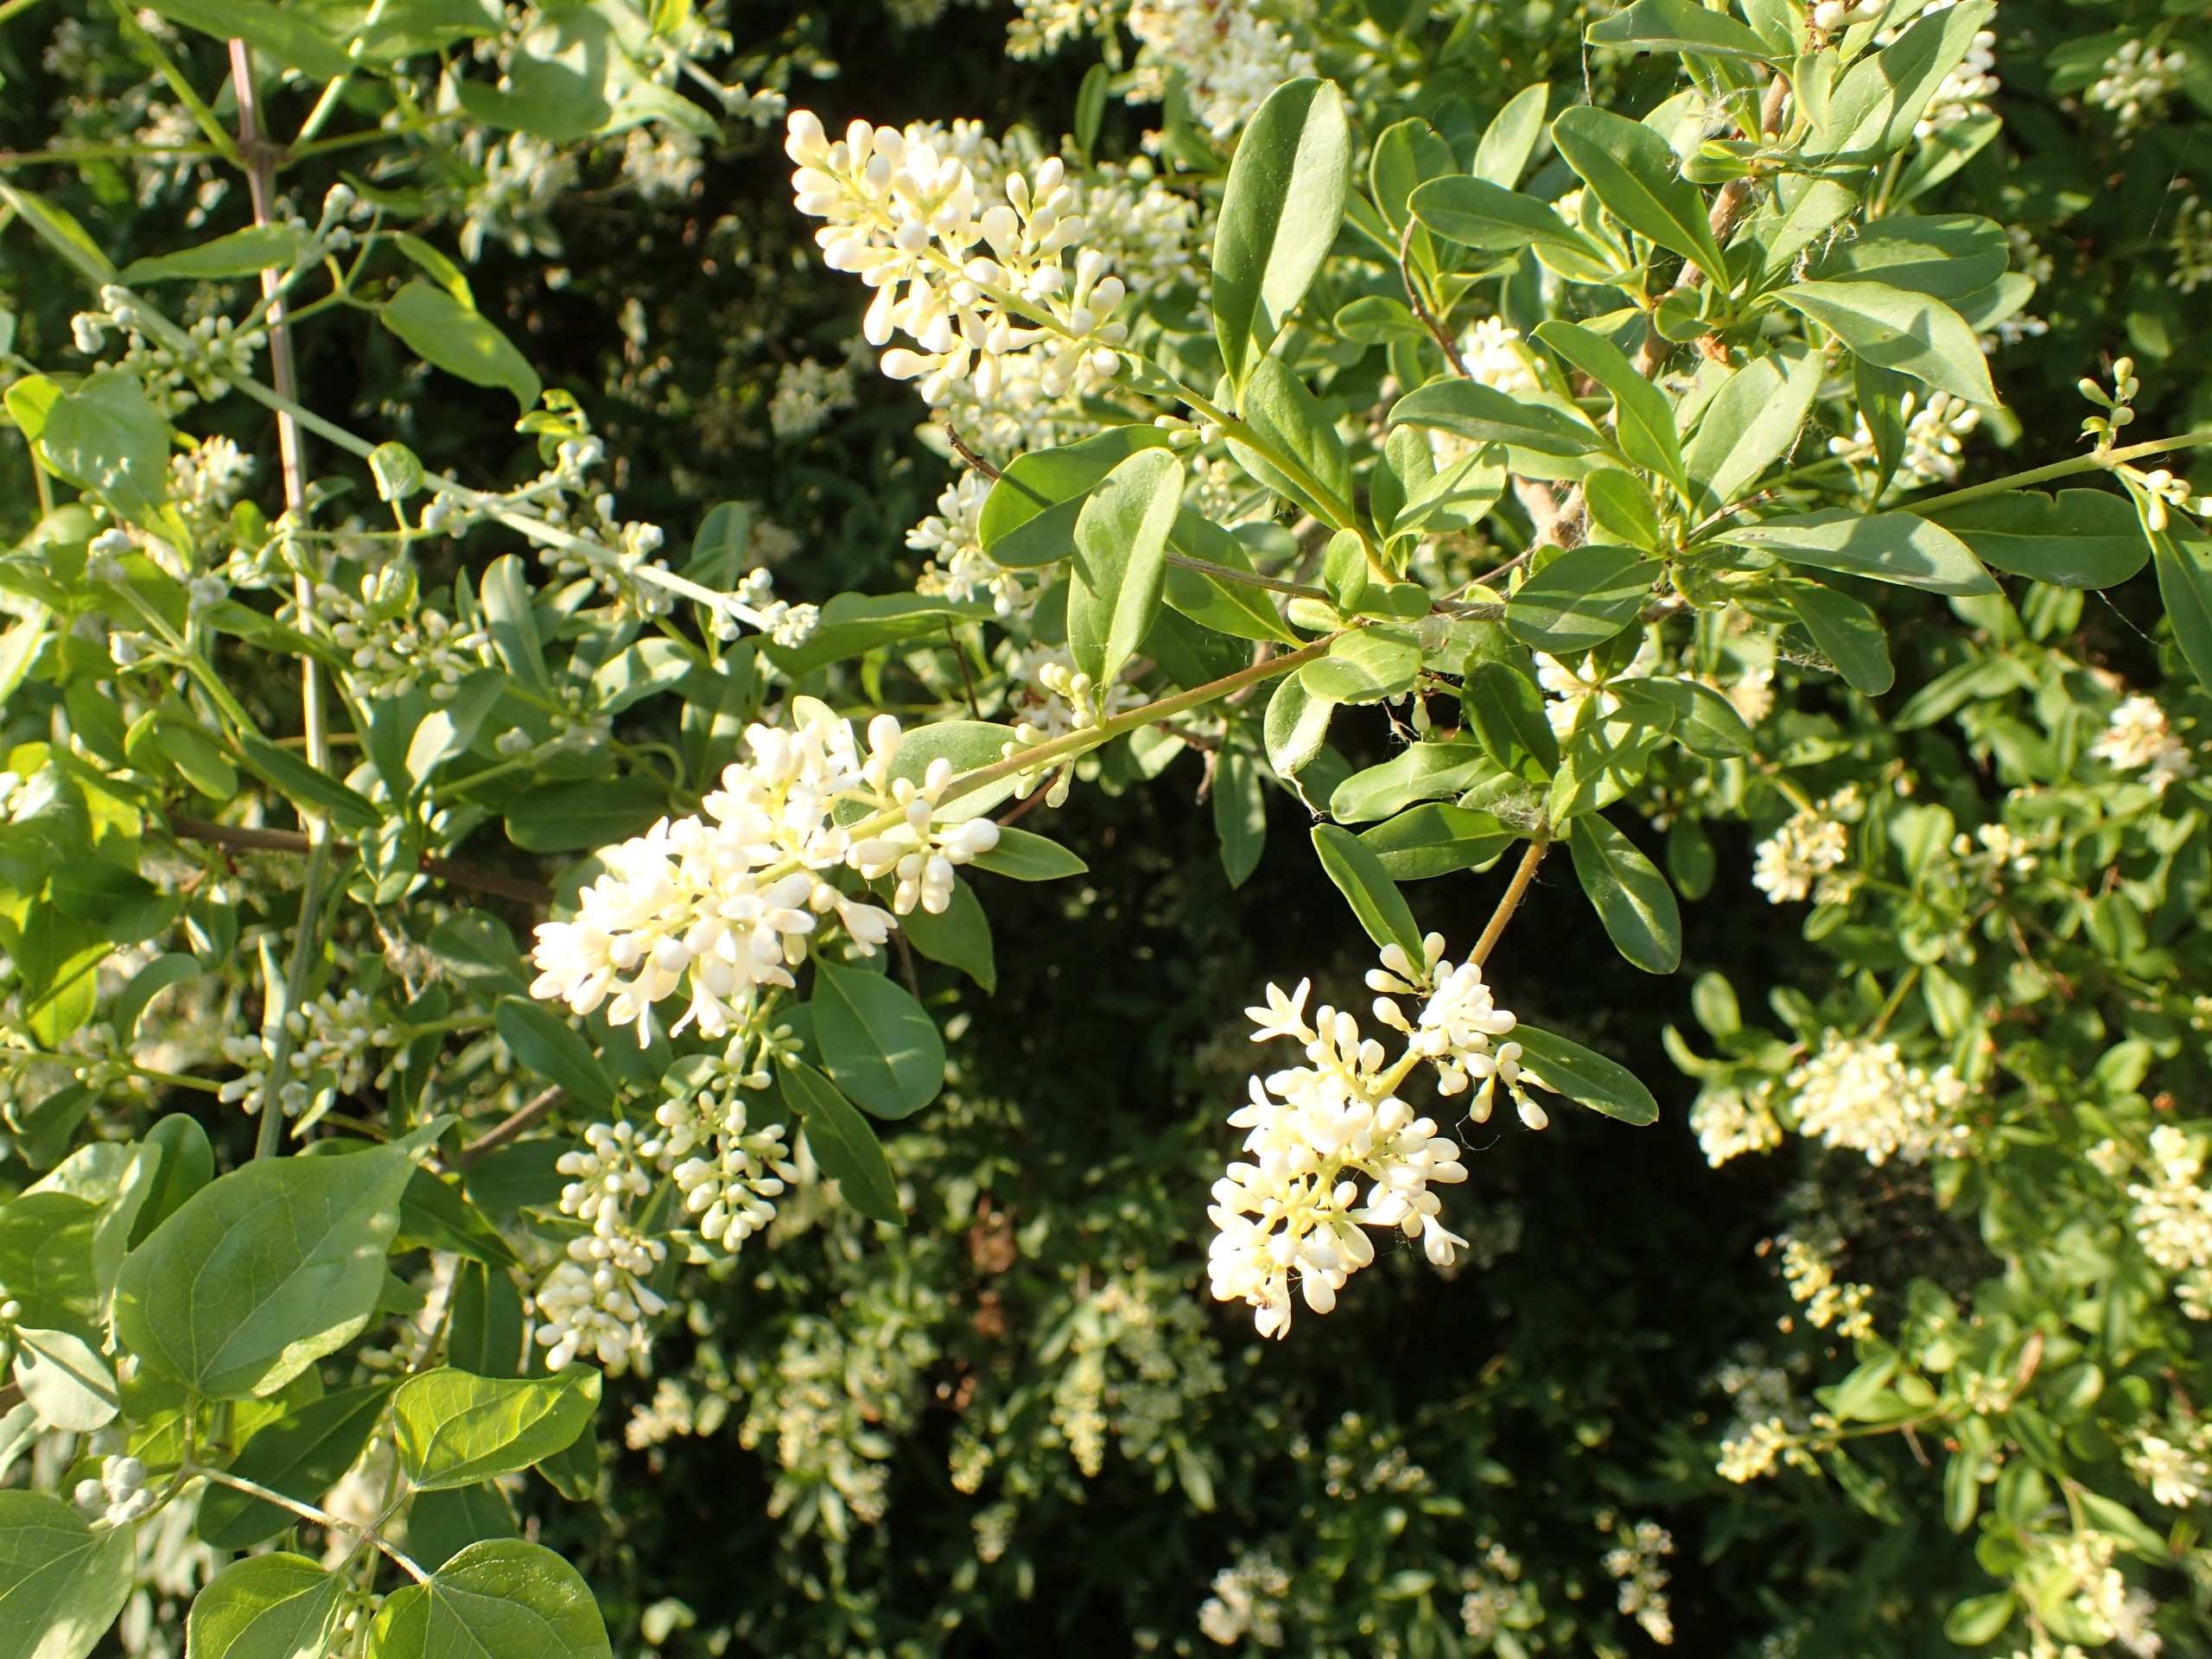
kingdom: Plantae
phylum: Tracheophyta
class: Magnoliopsida
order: Lamiales
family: Oleaceae
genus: Ligustrum
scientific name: Ligustrum vulgare
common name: Liguster
